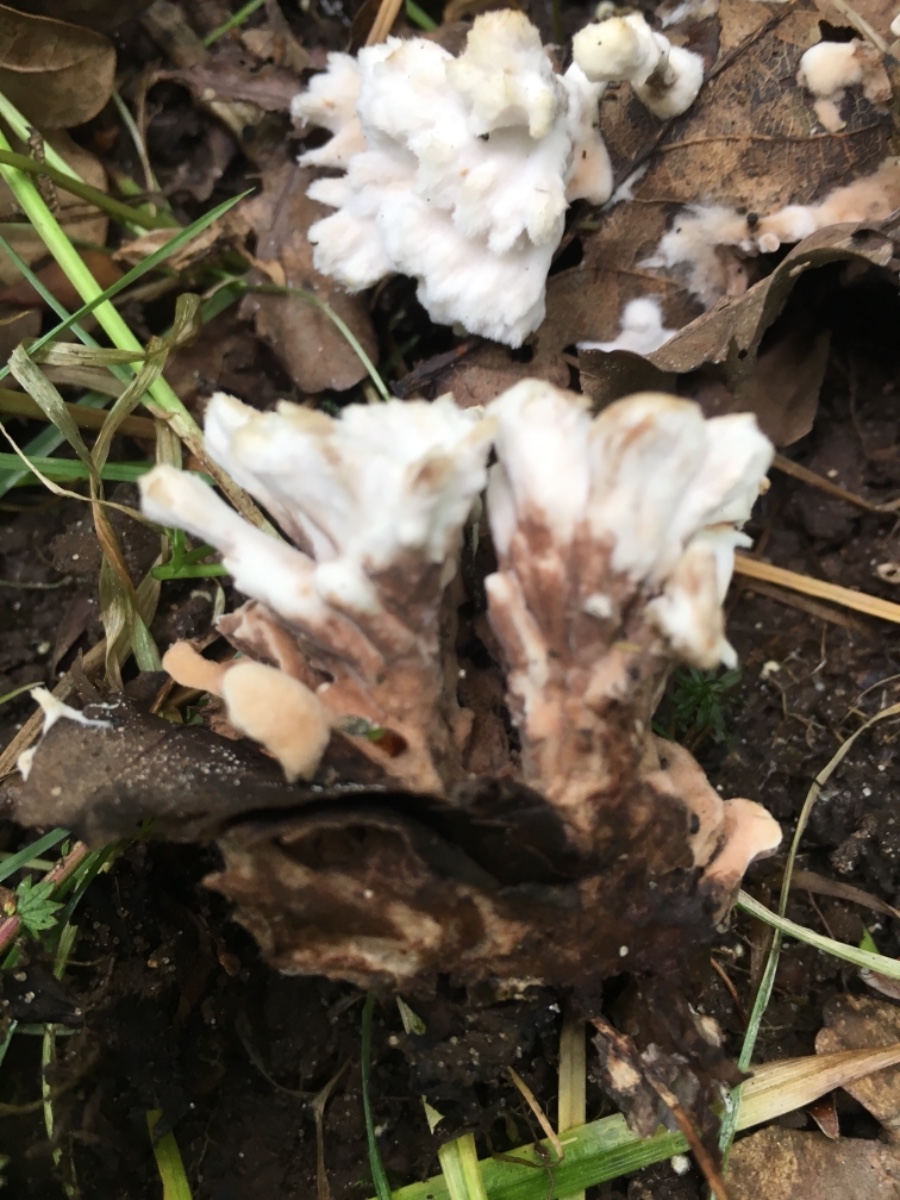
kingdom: Fungi
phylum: Basidiomycota
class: Agaricomycetes
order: Thelephorales
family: Thelephoraceae
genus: Thelephora
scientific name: Thelephora
